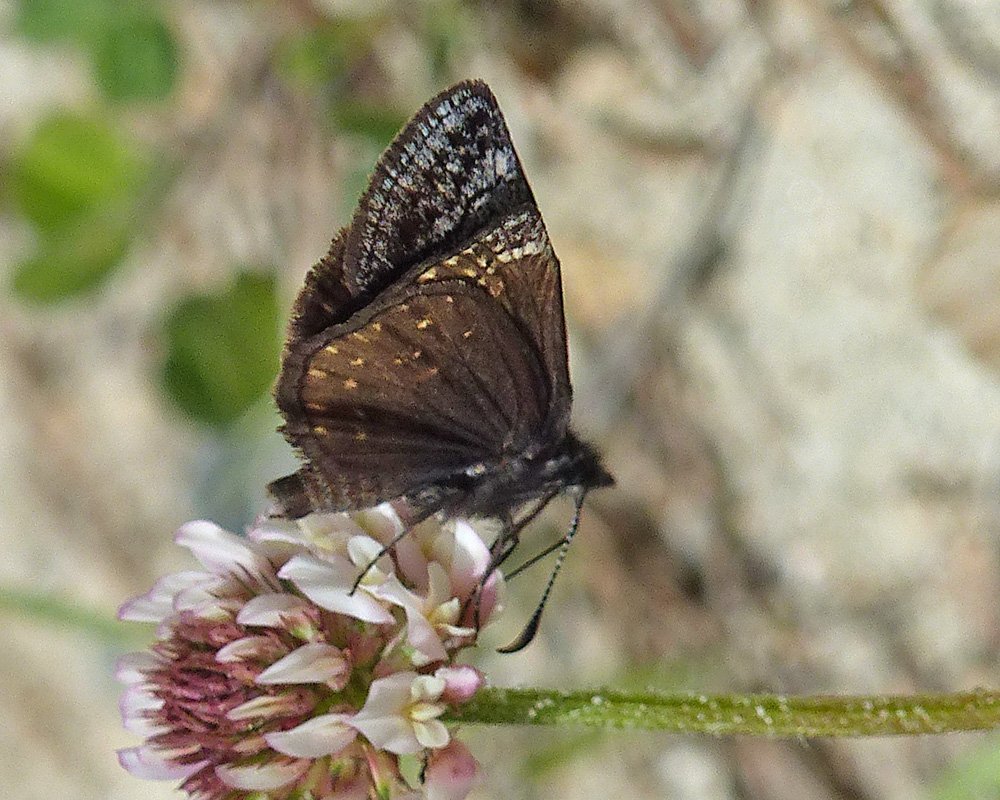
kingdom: Animalia
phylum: Arthropoda
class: Insecta
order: Lepidoptera
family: Hesperiidae
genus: Erynnis
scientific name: Erynnis icelus
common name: Dreamy Duskywing
